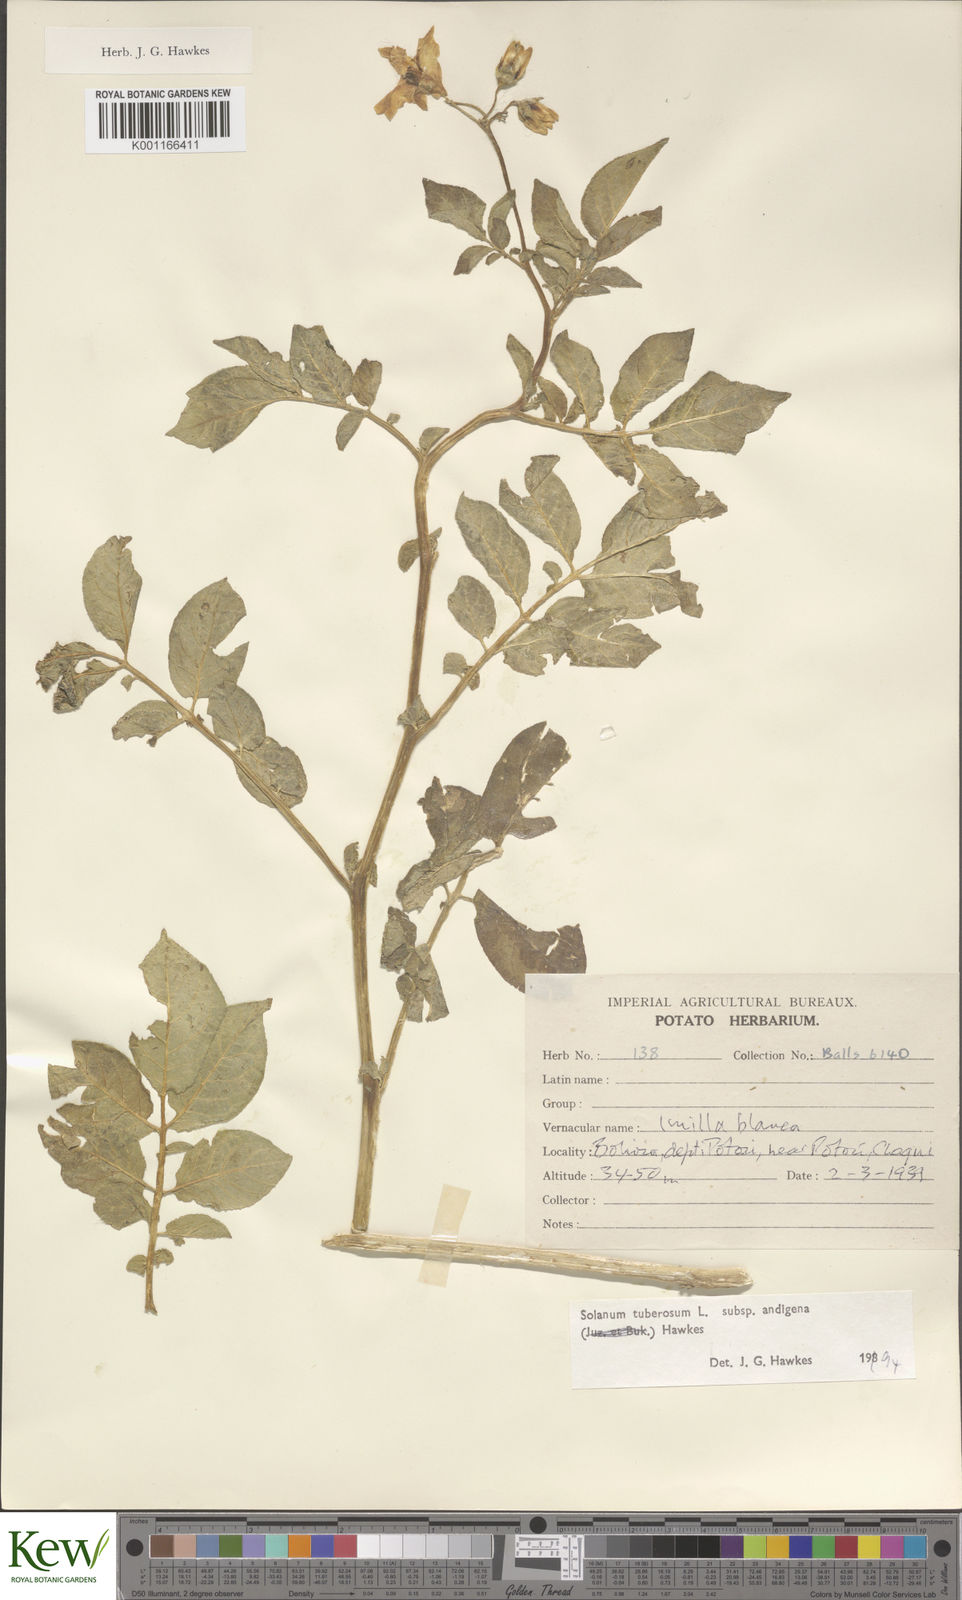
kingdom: Plantae
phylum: Tracheophyta
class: Magnoliopsida
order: Solanales
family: Solanaceae
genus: Solanum
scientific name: Solanum tuberosum
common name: Potato
